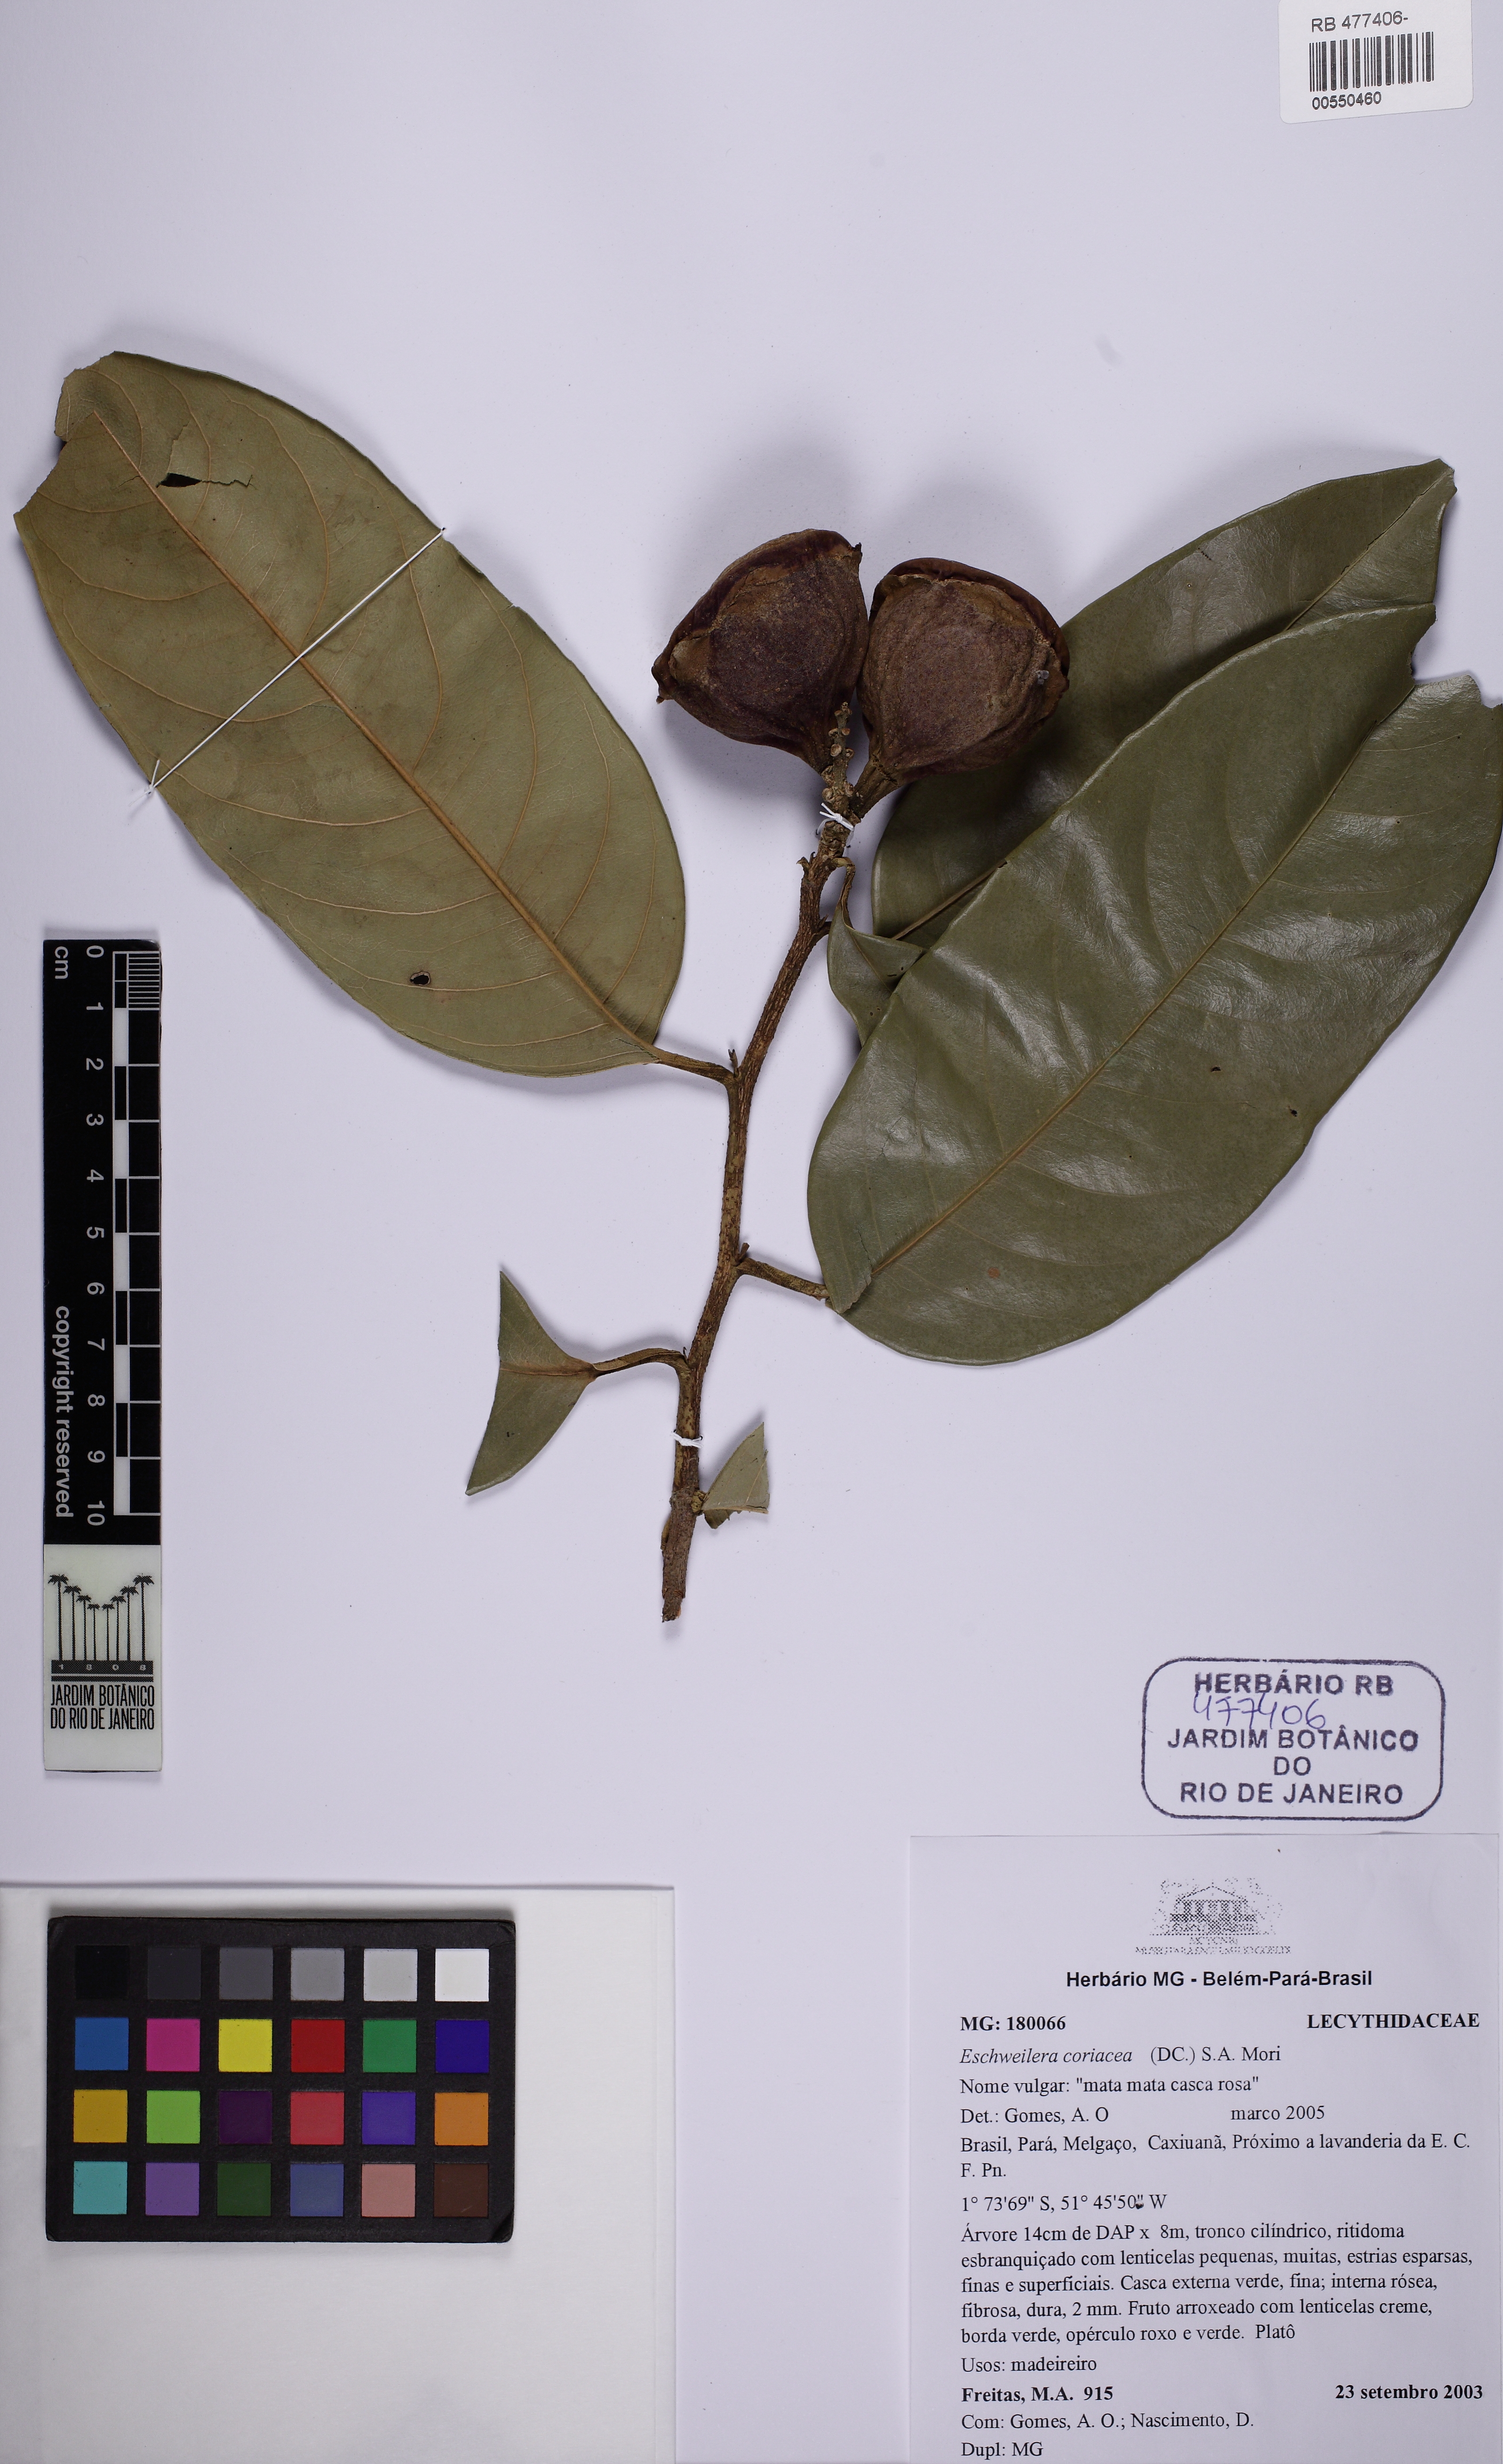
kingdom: Plantae
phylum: Tracheophyta
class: Magnoliopsida
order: Ericales
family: Lecythidaceae
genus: Eschweilera
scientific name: Eschweilera rabeliana
